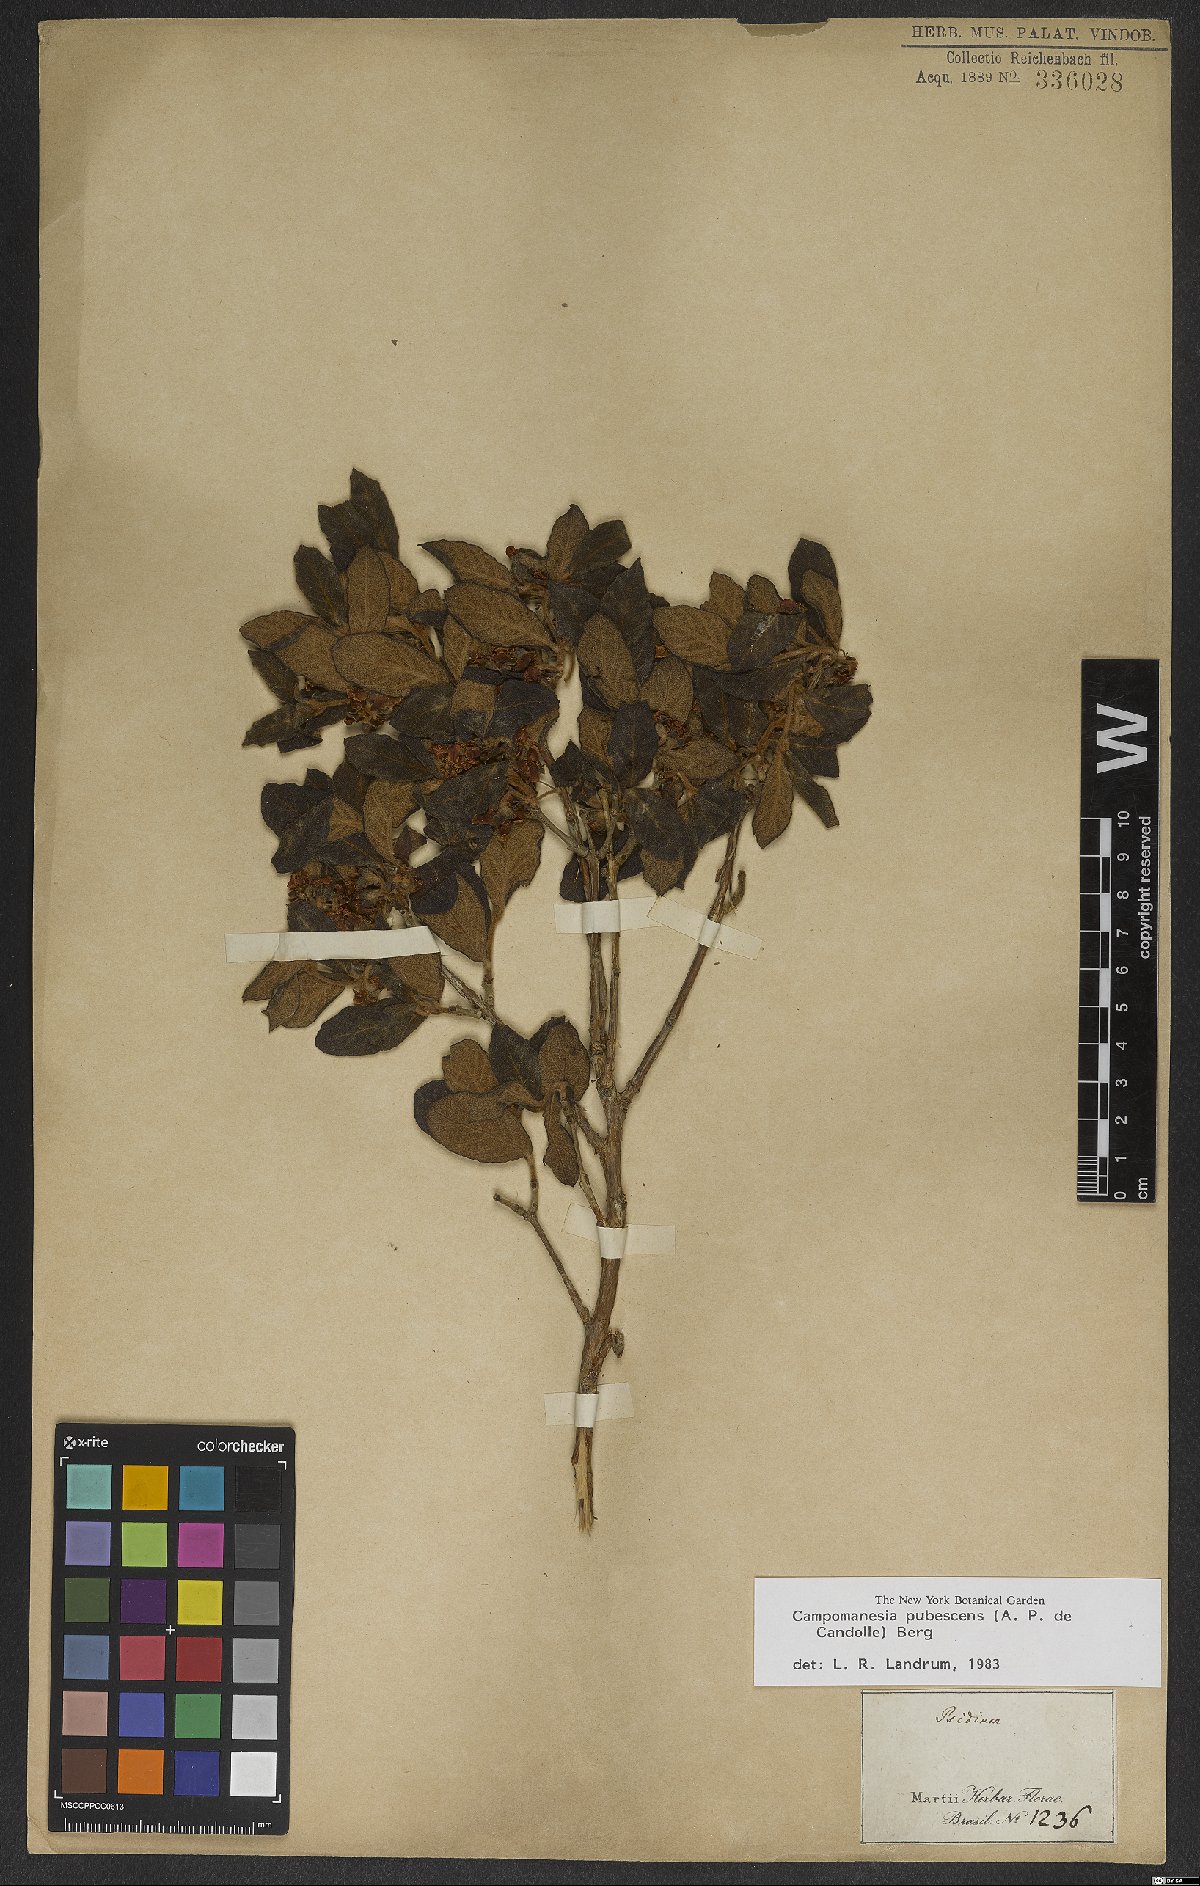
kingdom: Plantae
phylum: Tracheophyta
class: Magnoliopsida
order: Myrtales
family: Myrtaceae
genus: Campomanesia
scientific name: Campomanesia pubescens
